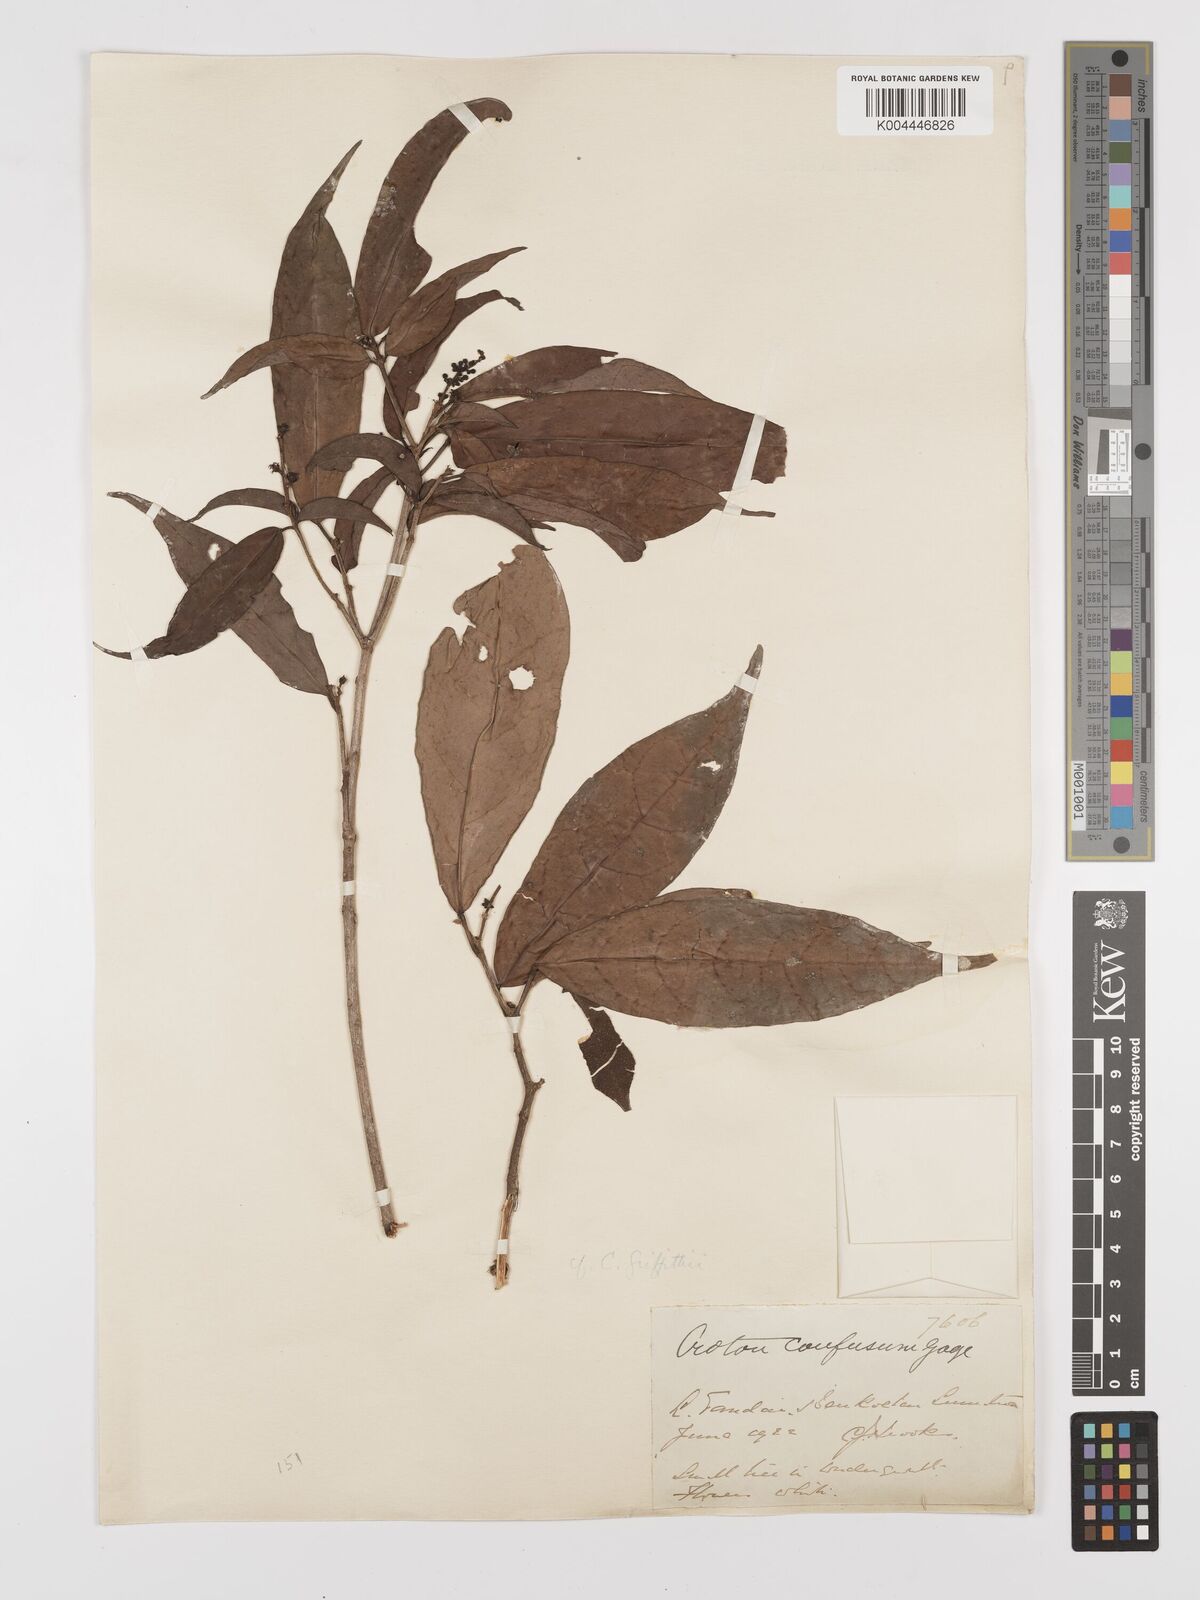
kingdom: Plantae
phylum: Tracheophyta
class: Magnoliopsida
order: Malpighiales
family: Euphorbiaceae
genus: Croton
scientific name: Croton
